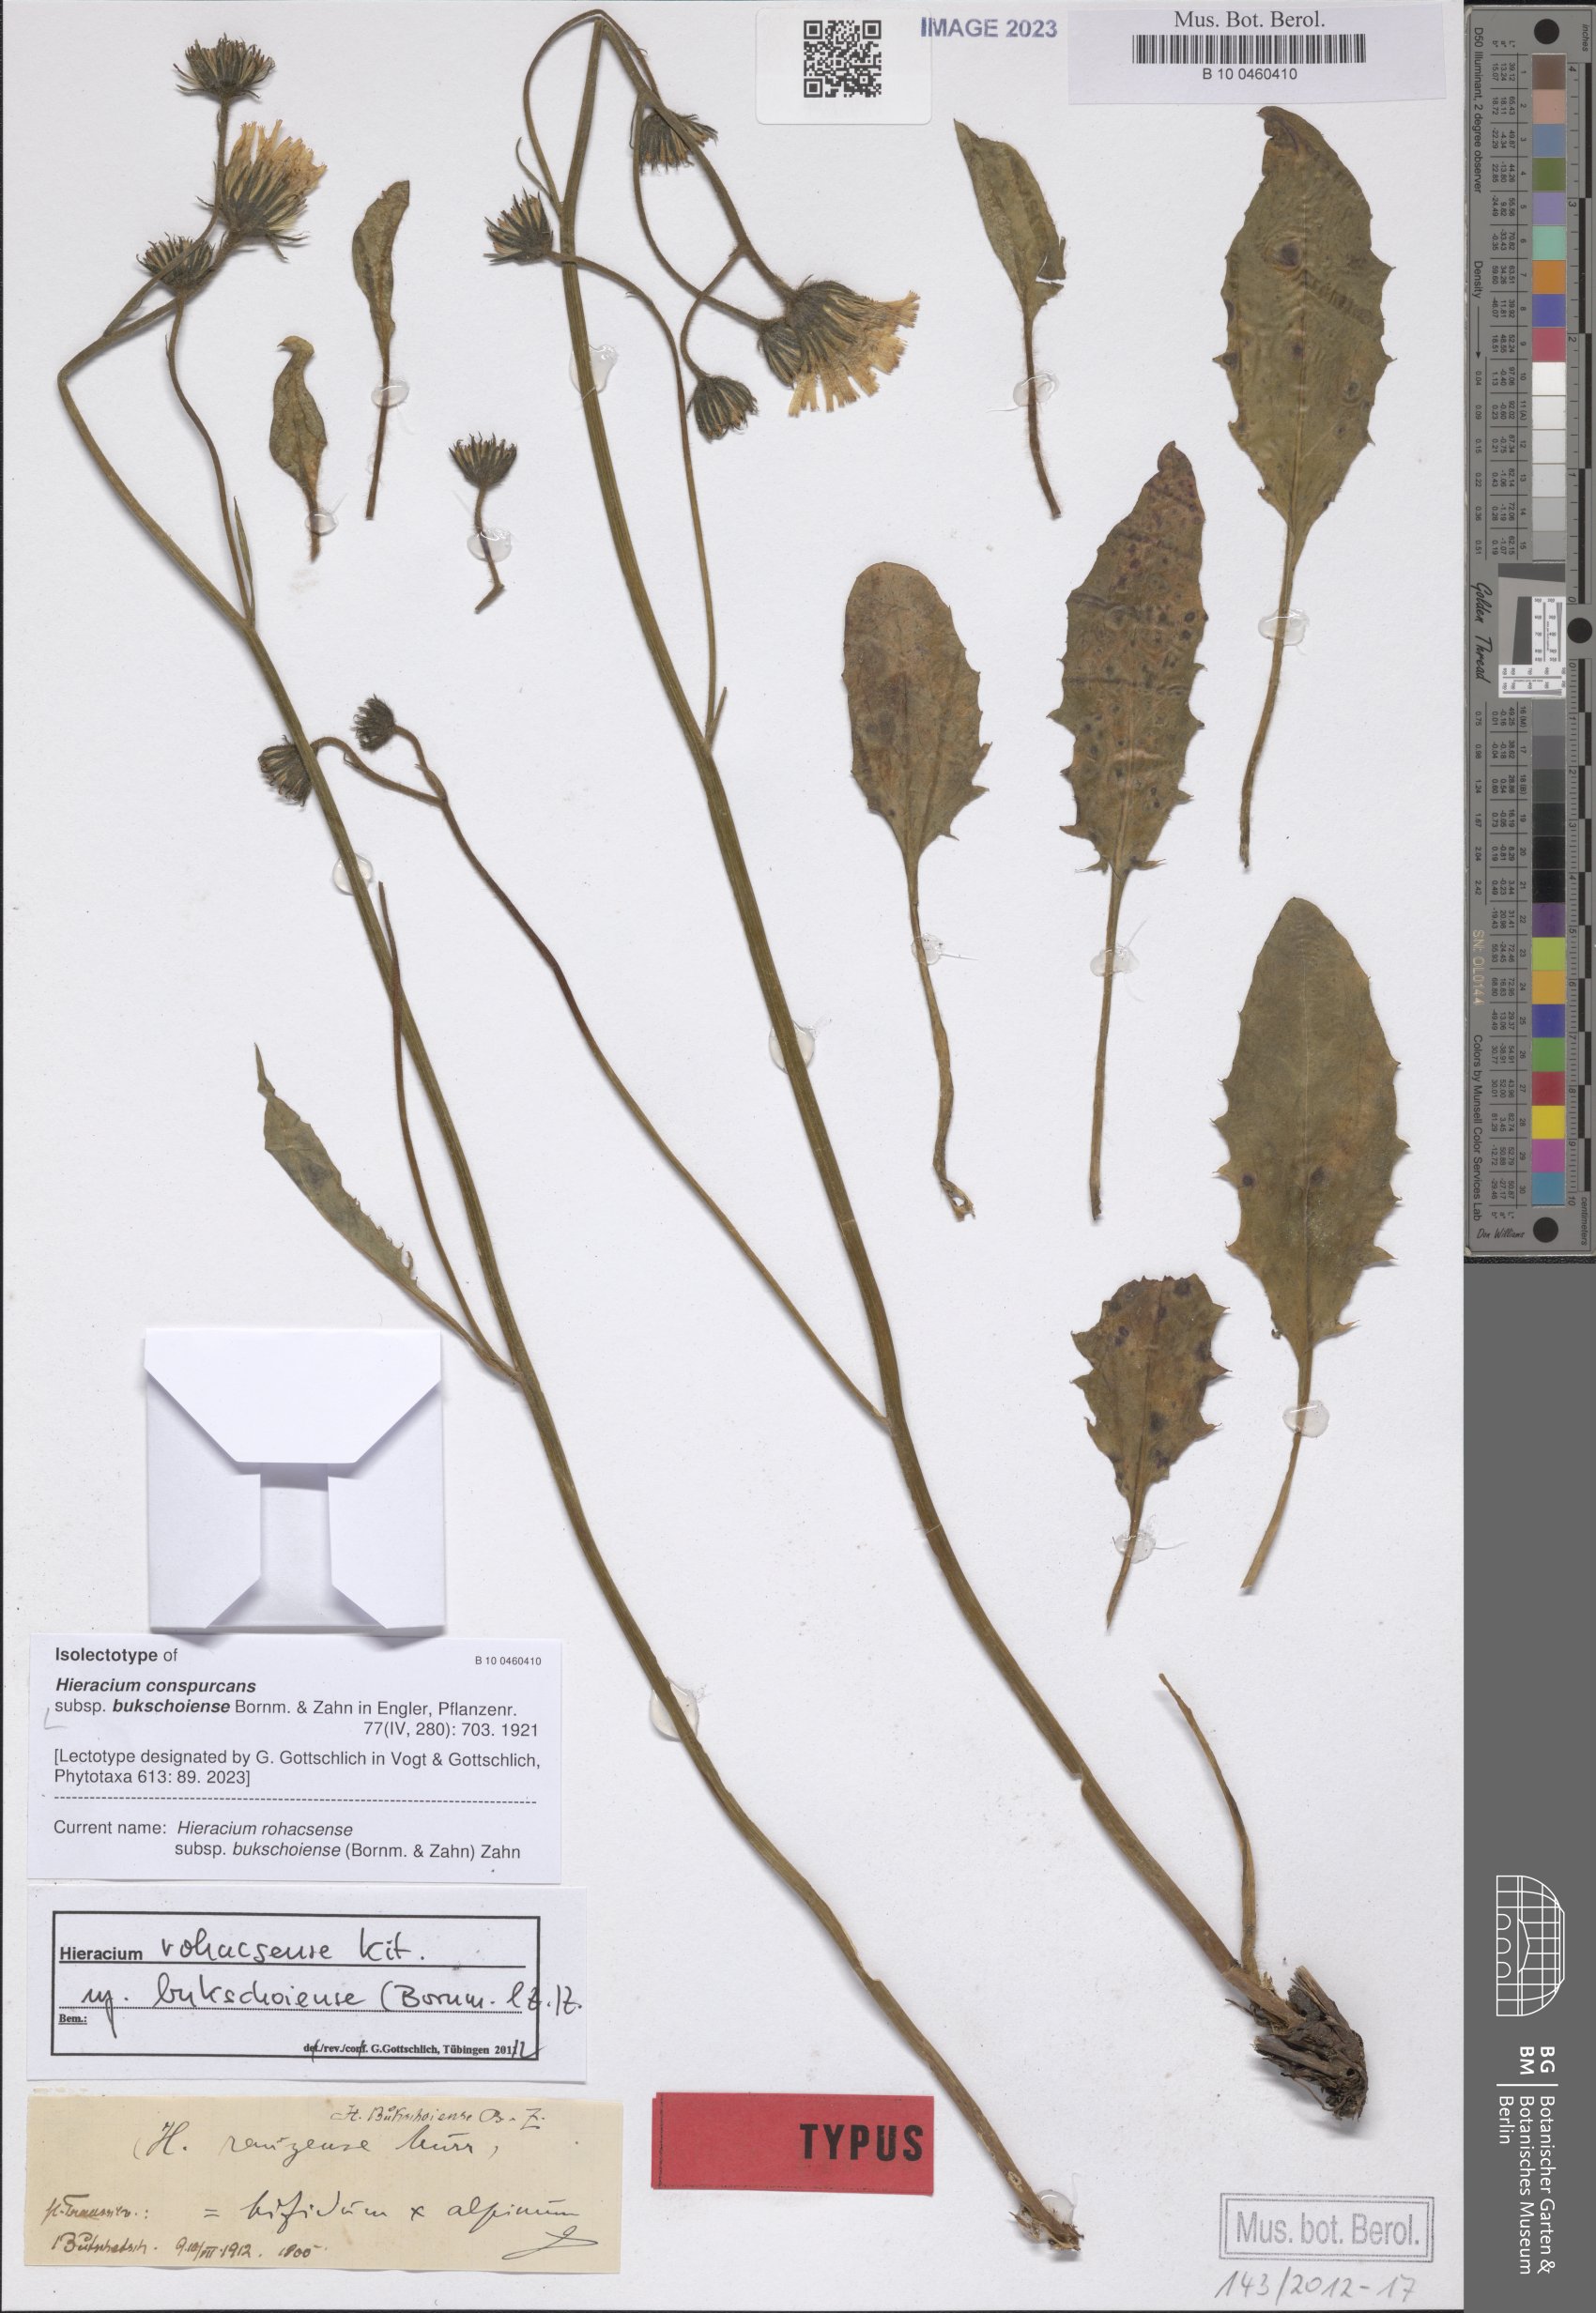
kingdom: Plantae
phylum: Tracheophyta
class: Magnoliopsida
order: Asterales
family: Asteraceae
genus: Hieracium
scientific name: Hieracium conspurcans
